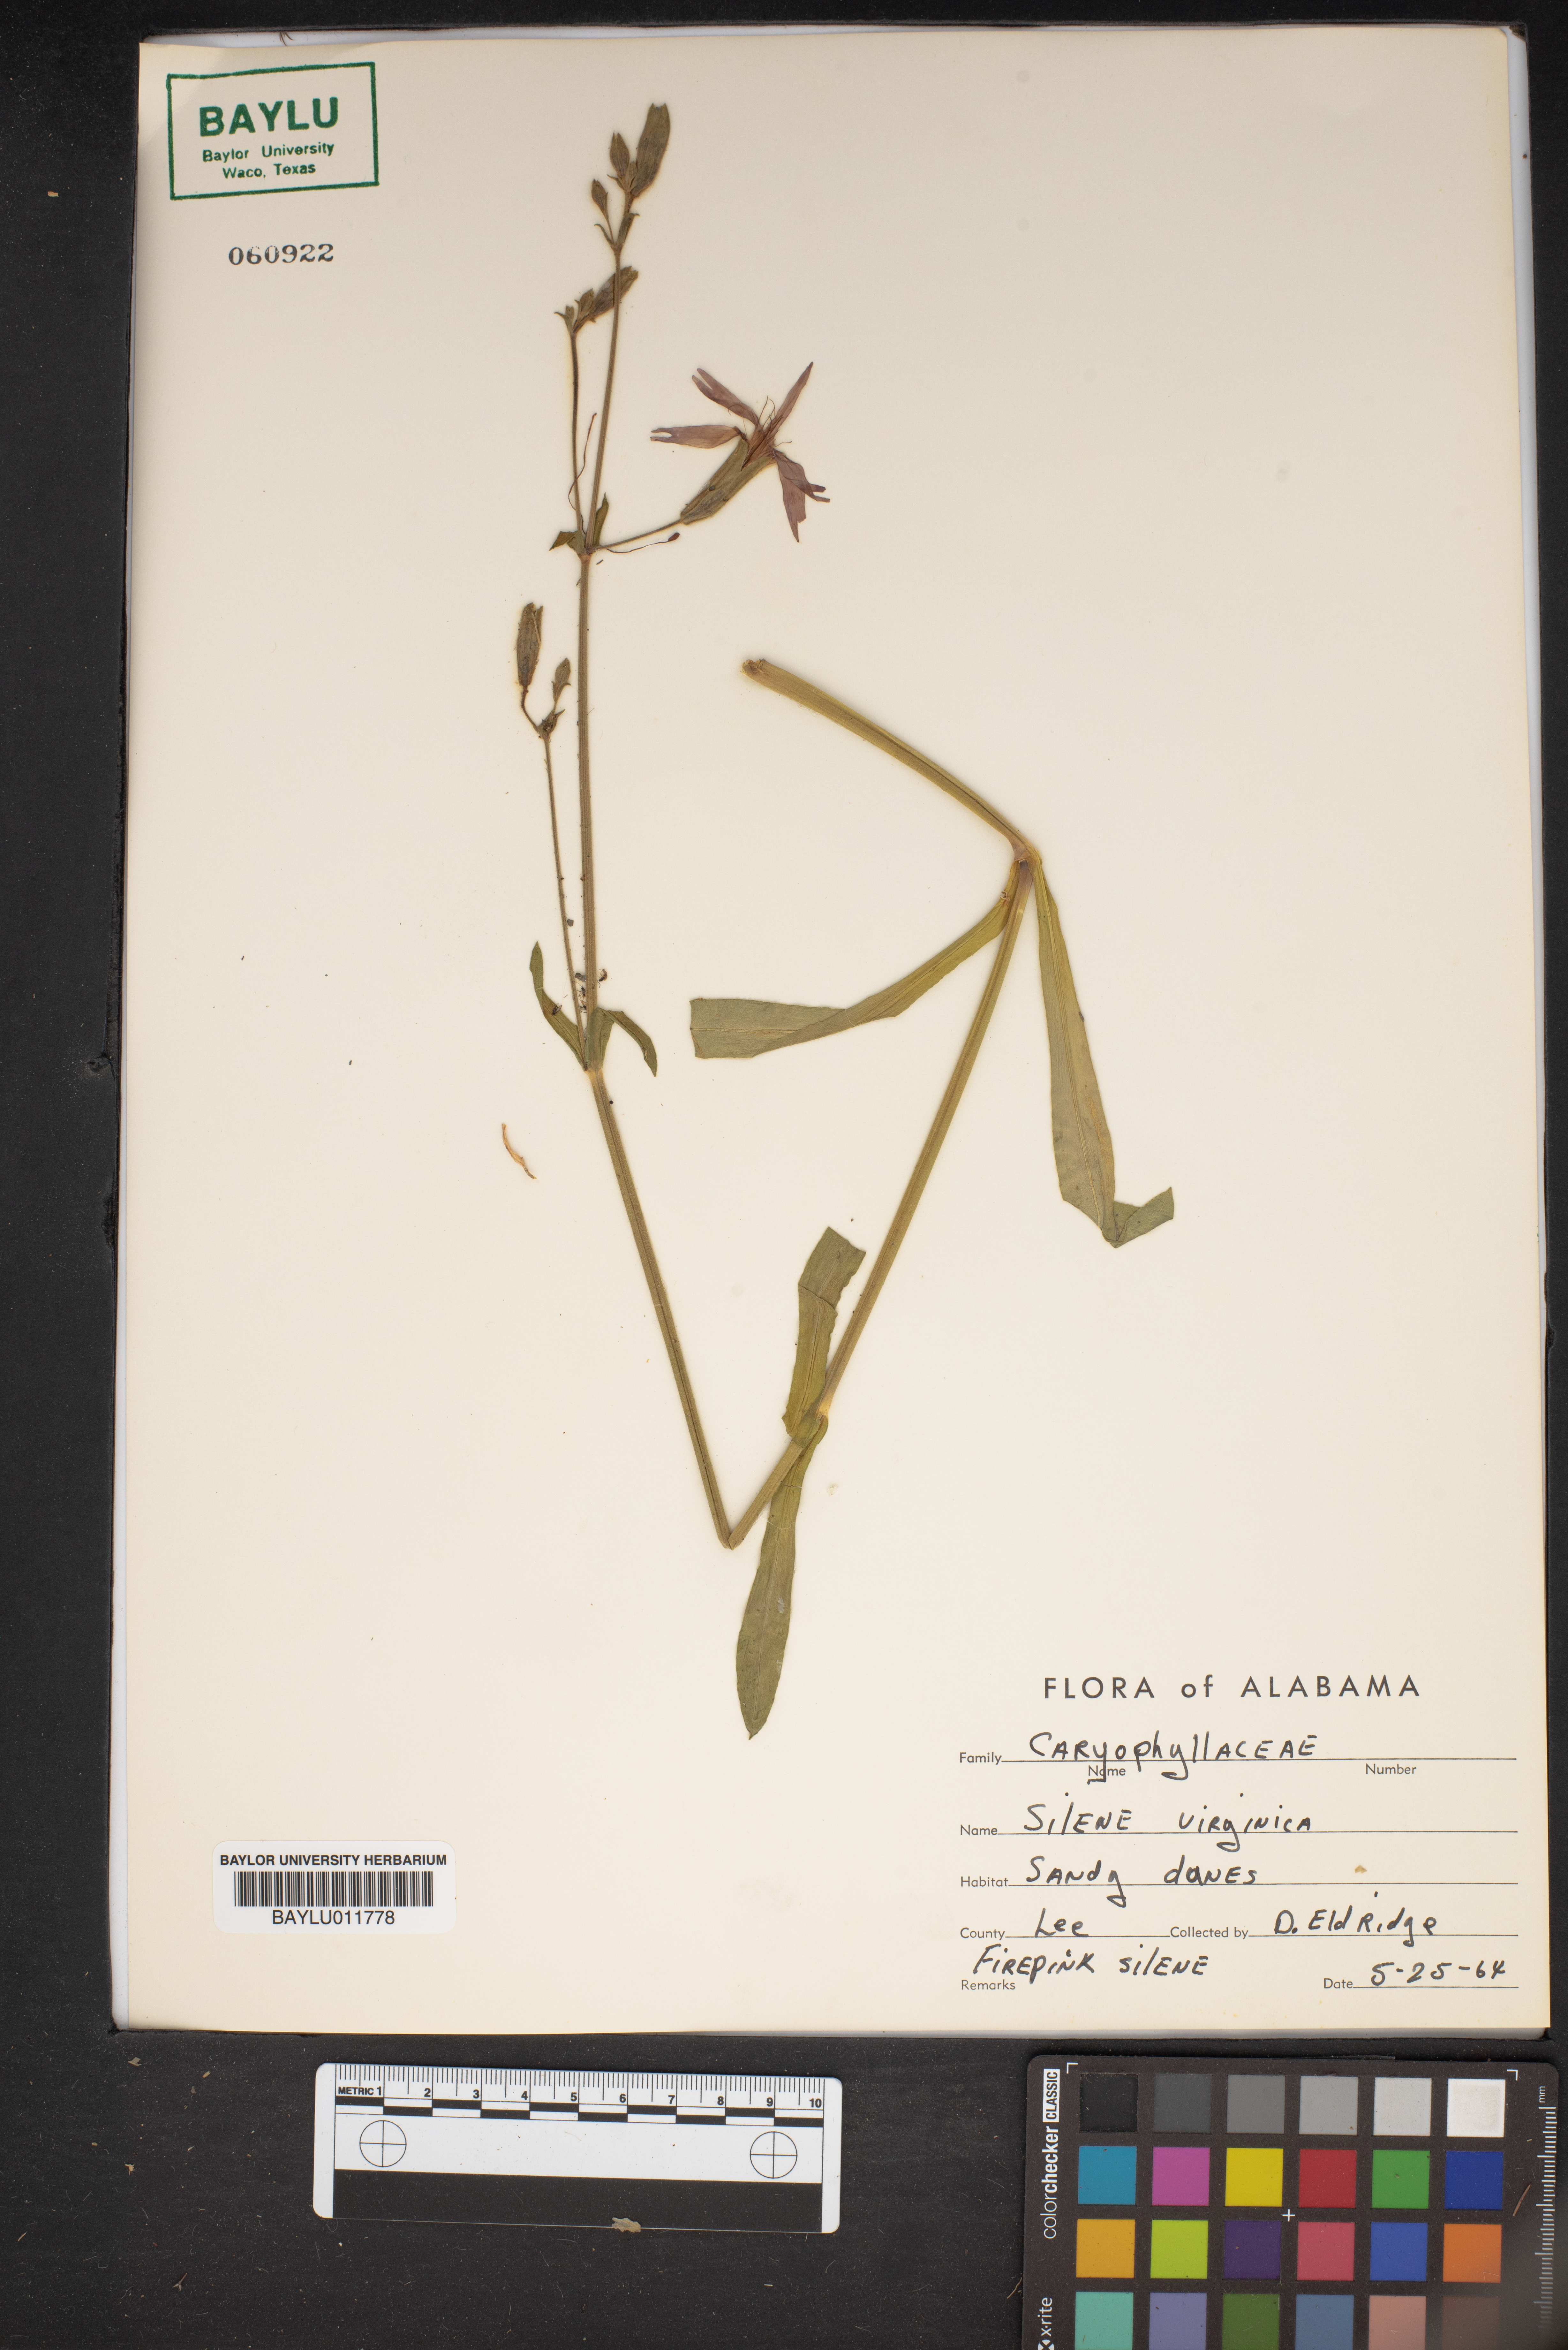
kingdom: Plantae
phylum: Tracheophyta
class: Magnoliopsida
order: Caryophyllales
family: Caryophyllaceae
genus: Silene
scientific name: Silene virginica
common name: Fire-pink
